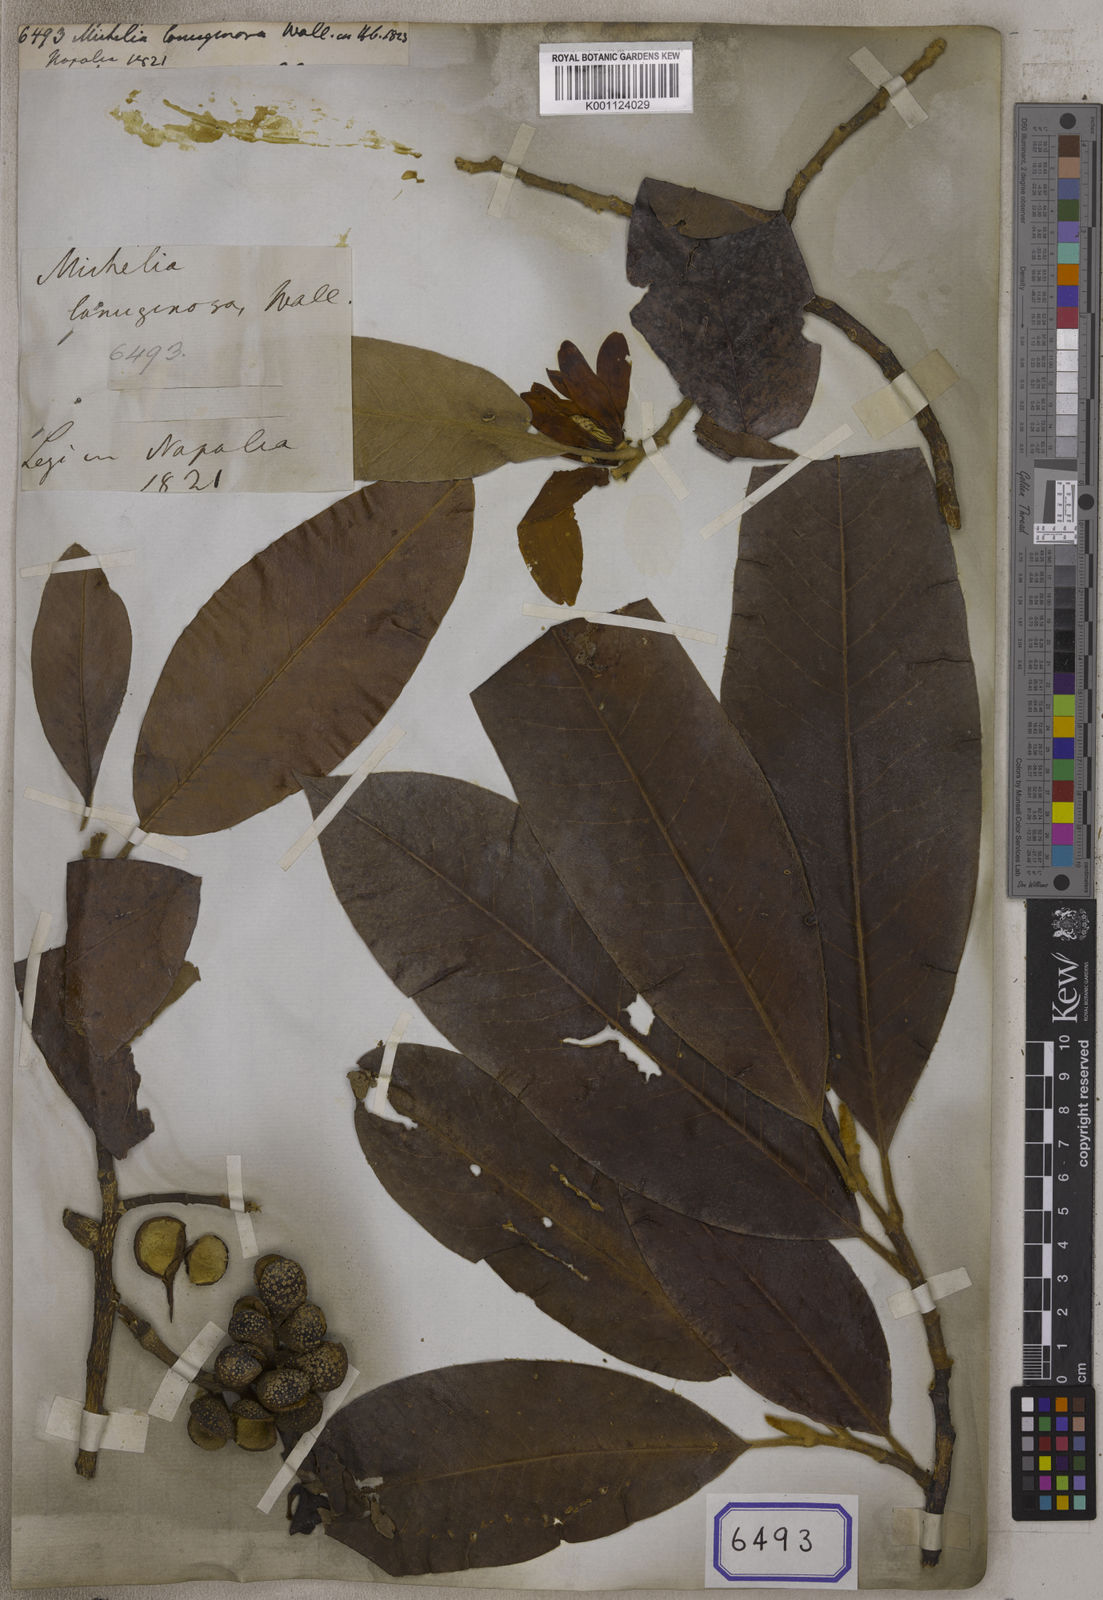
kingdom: Plantae
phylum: Tracheophyta
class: Magnoliopsida
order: Magnoliales
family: Magnoliaceae
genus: Magnolia
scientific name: Magnolia lanuginosa
